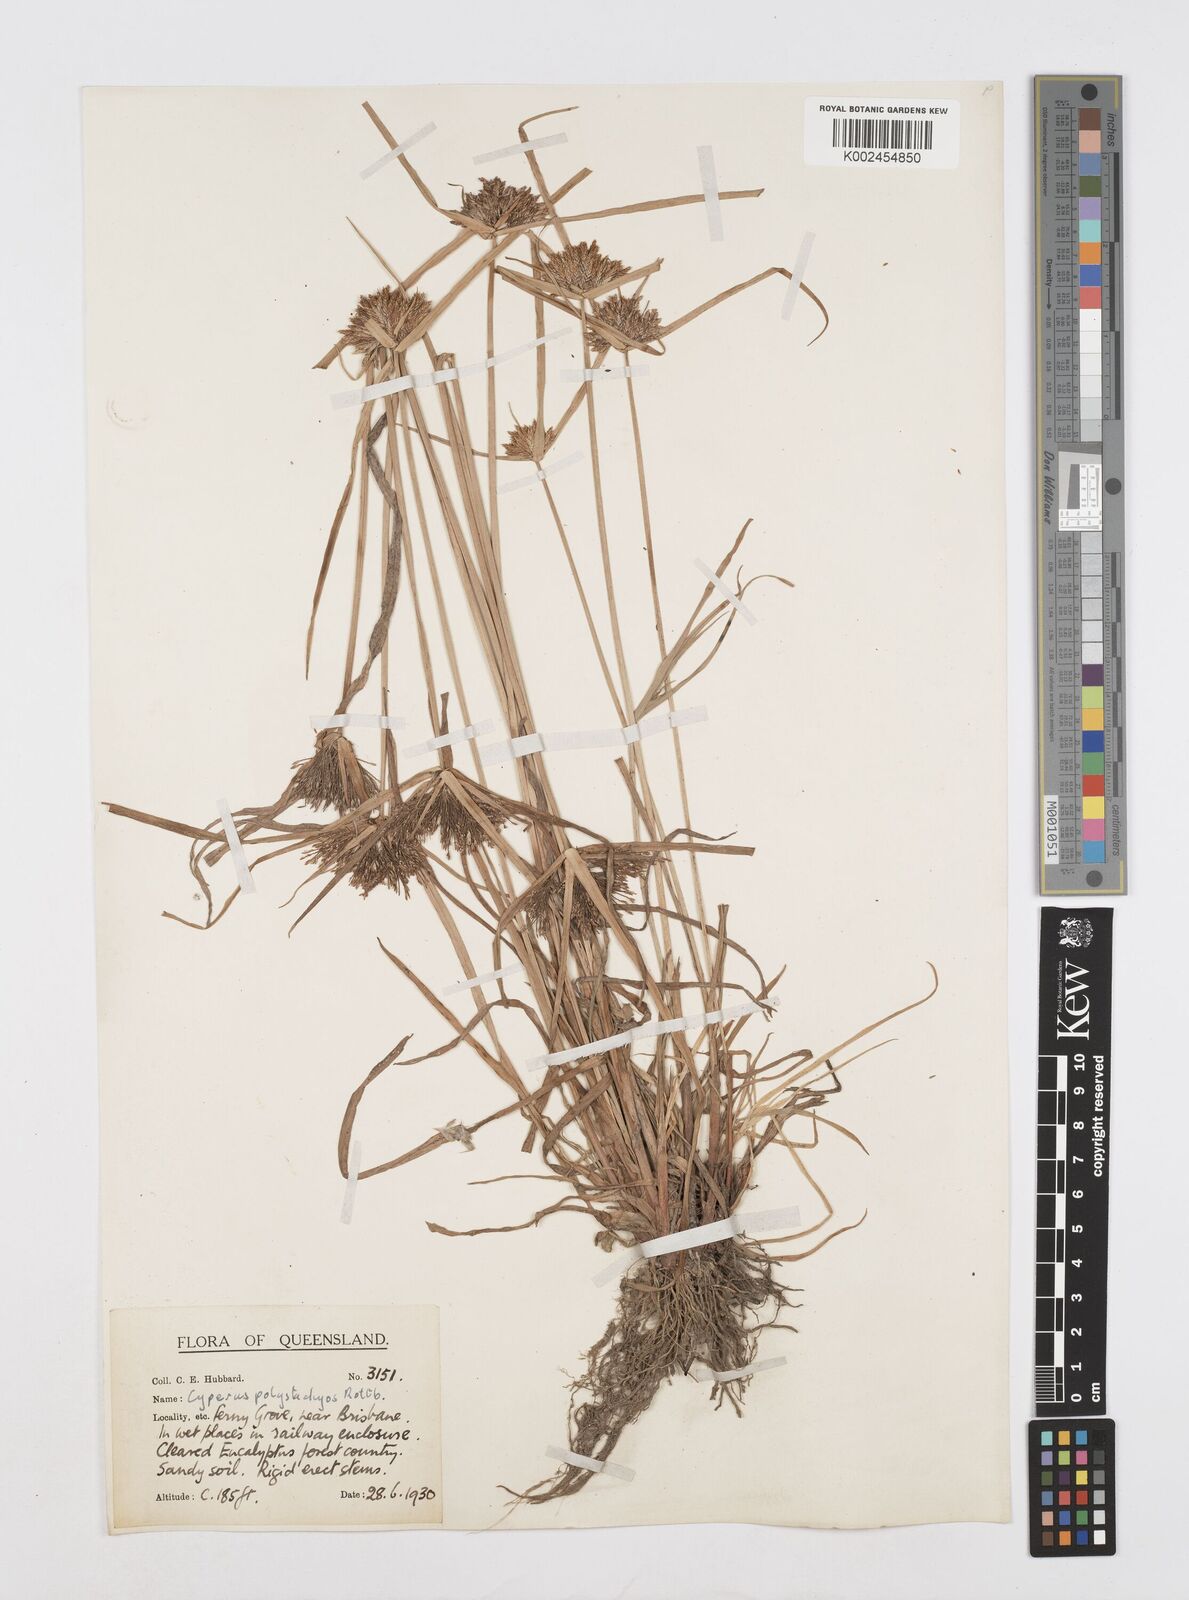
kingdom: Plantae
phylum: Tracheophyta
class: Liliopsida
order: Poales
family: Cyperaceae
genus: Cyperus
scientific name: Cyperus polystachyos
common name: Bunchy flat sedge
